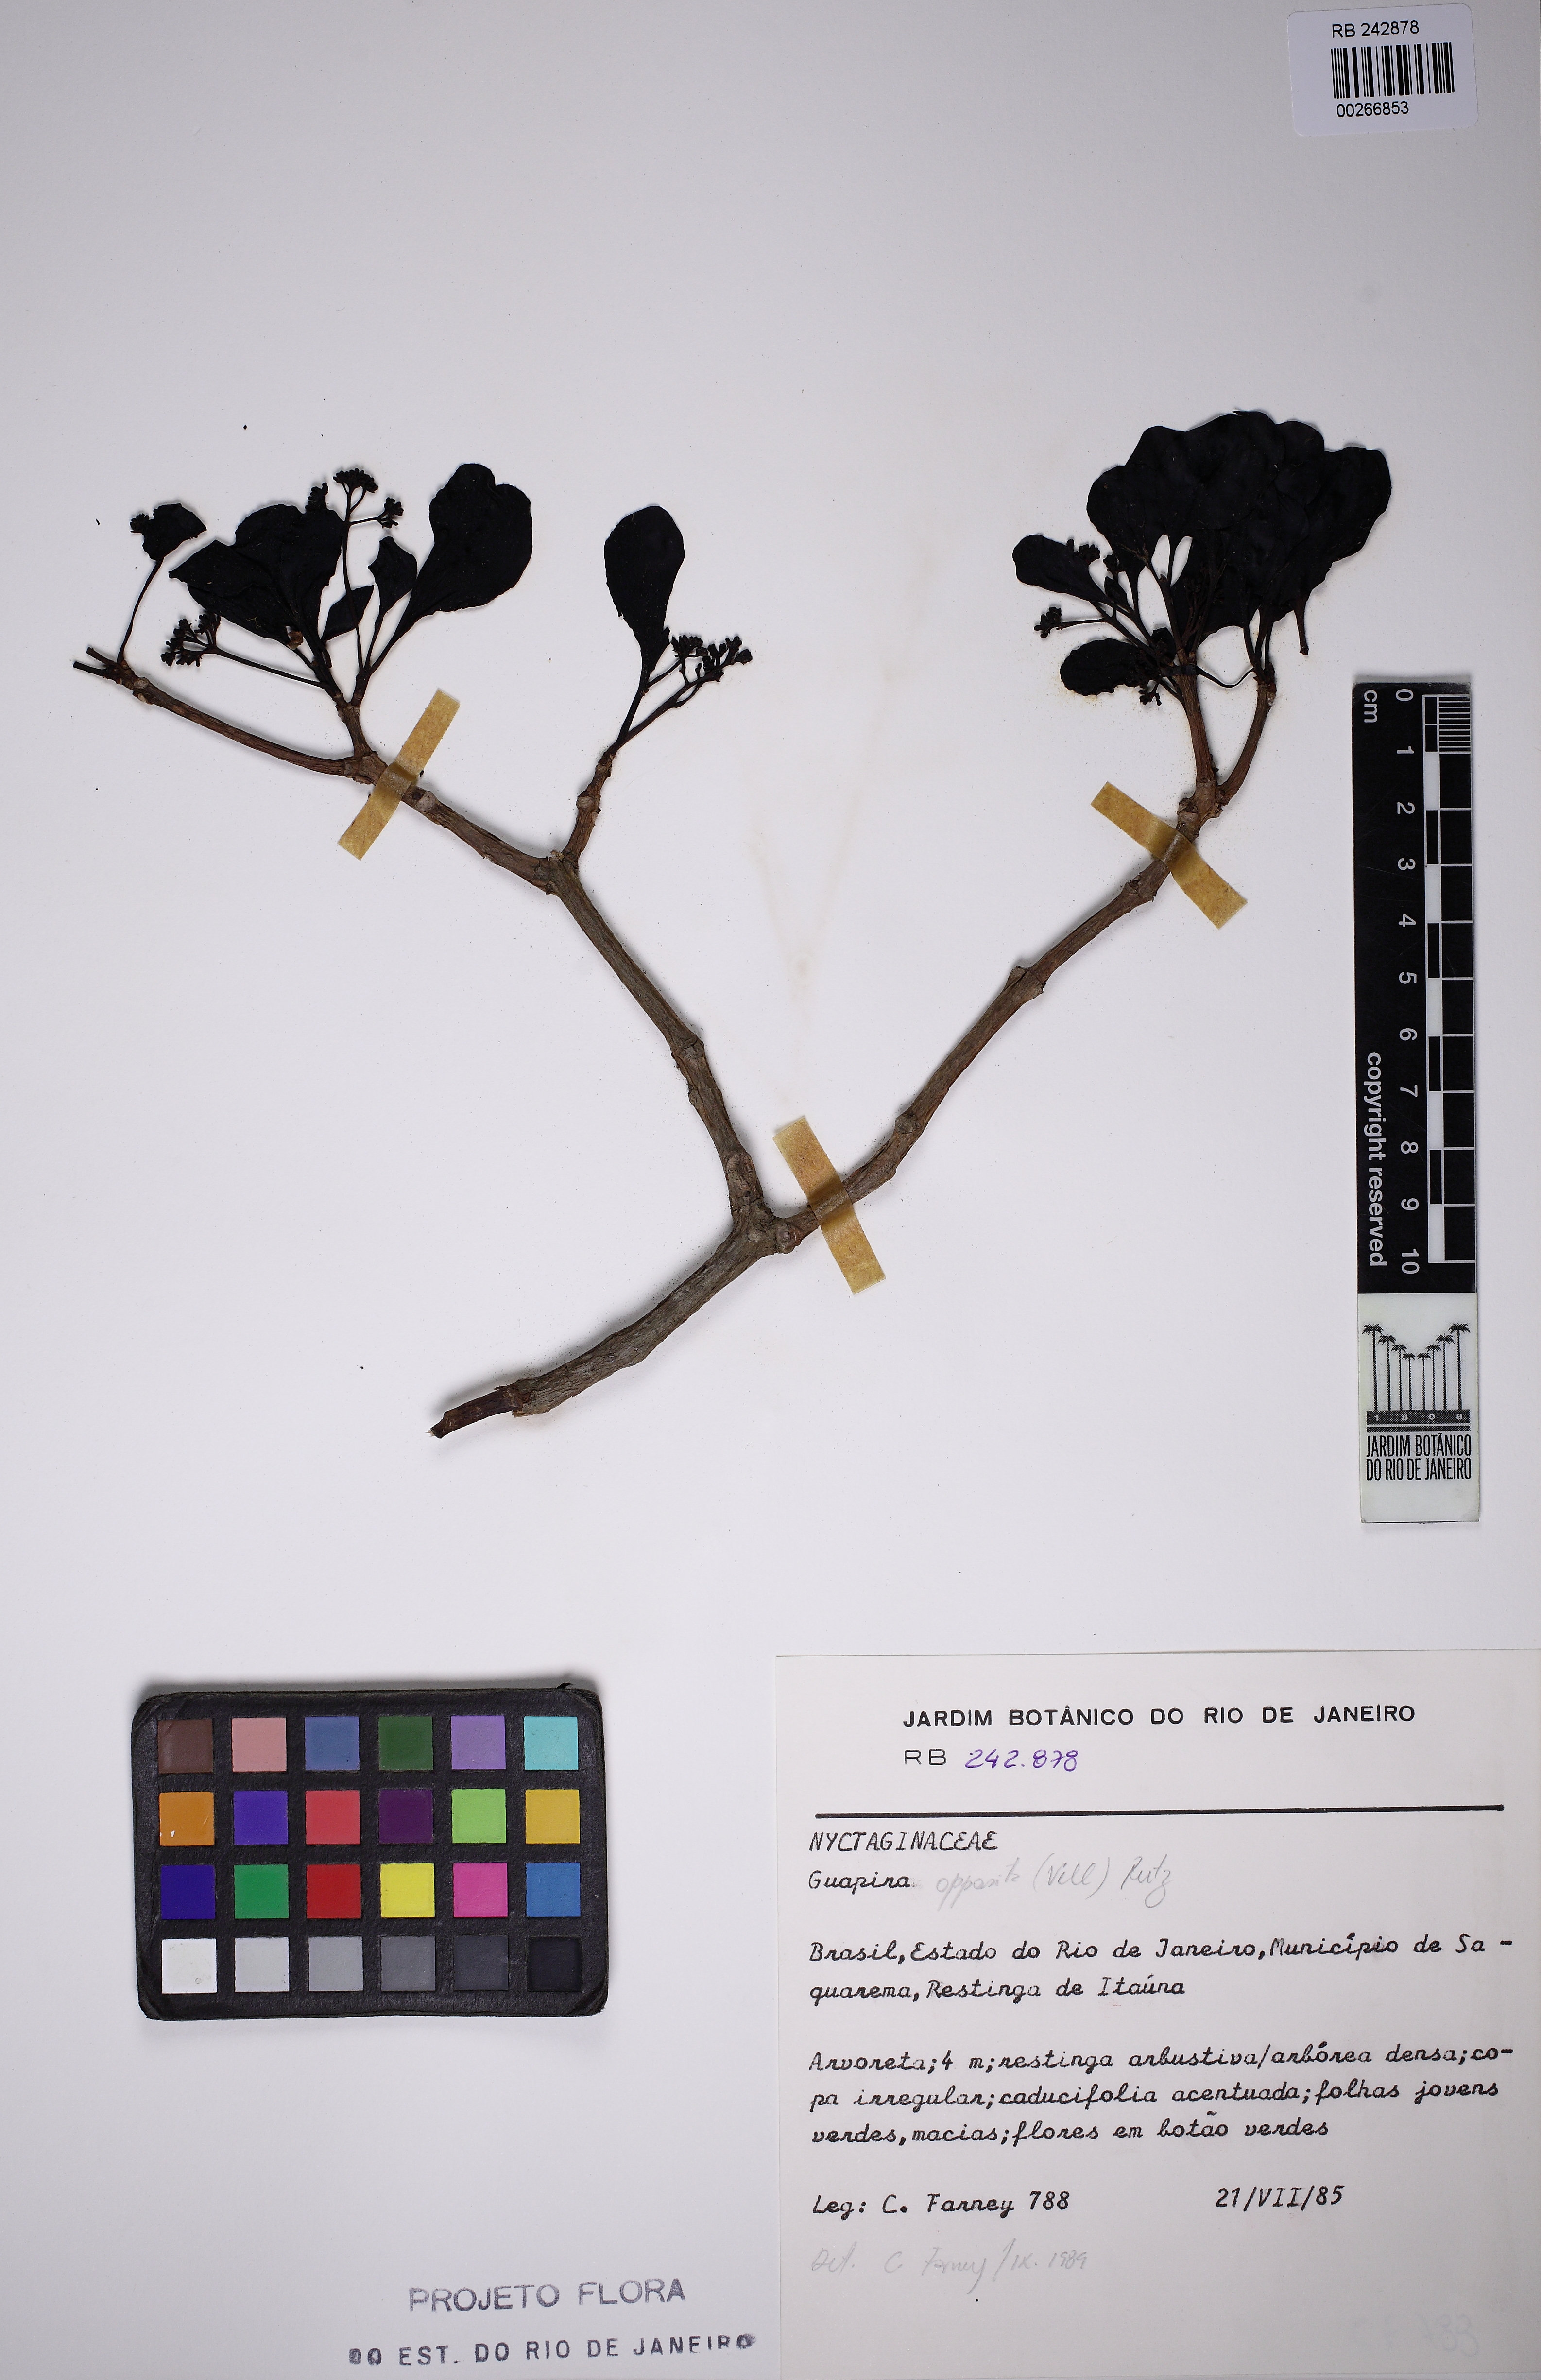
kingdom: Plantae
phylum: Tracheophyta
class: Magnoliopsida
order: Caryophyllales
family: Nyctaginaceae
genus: Guapira
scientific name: Guapira opposita
